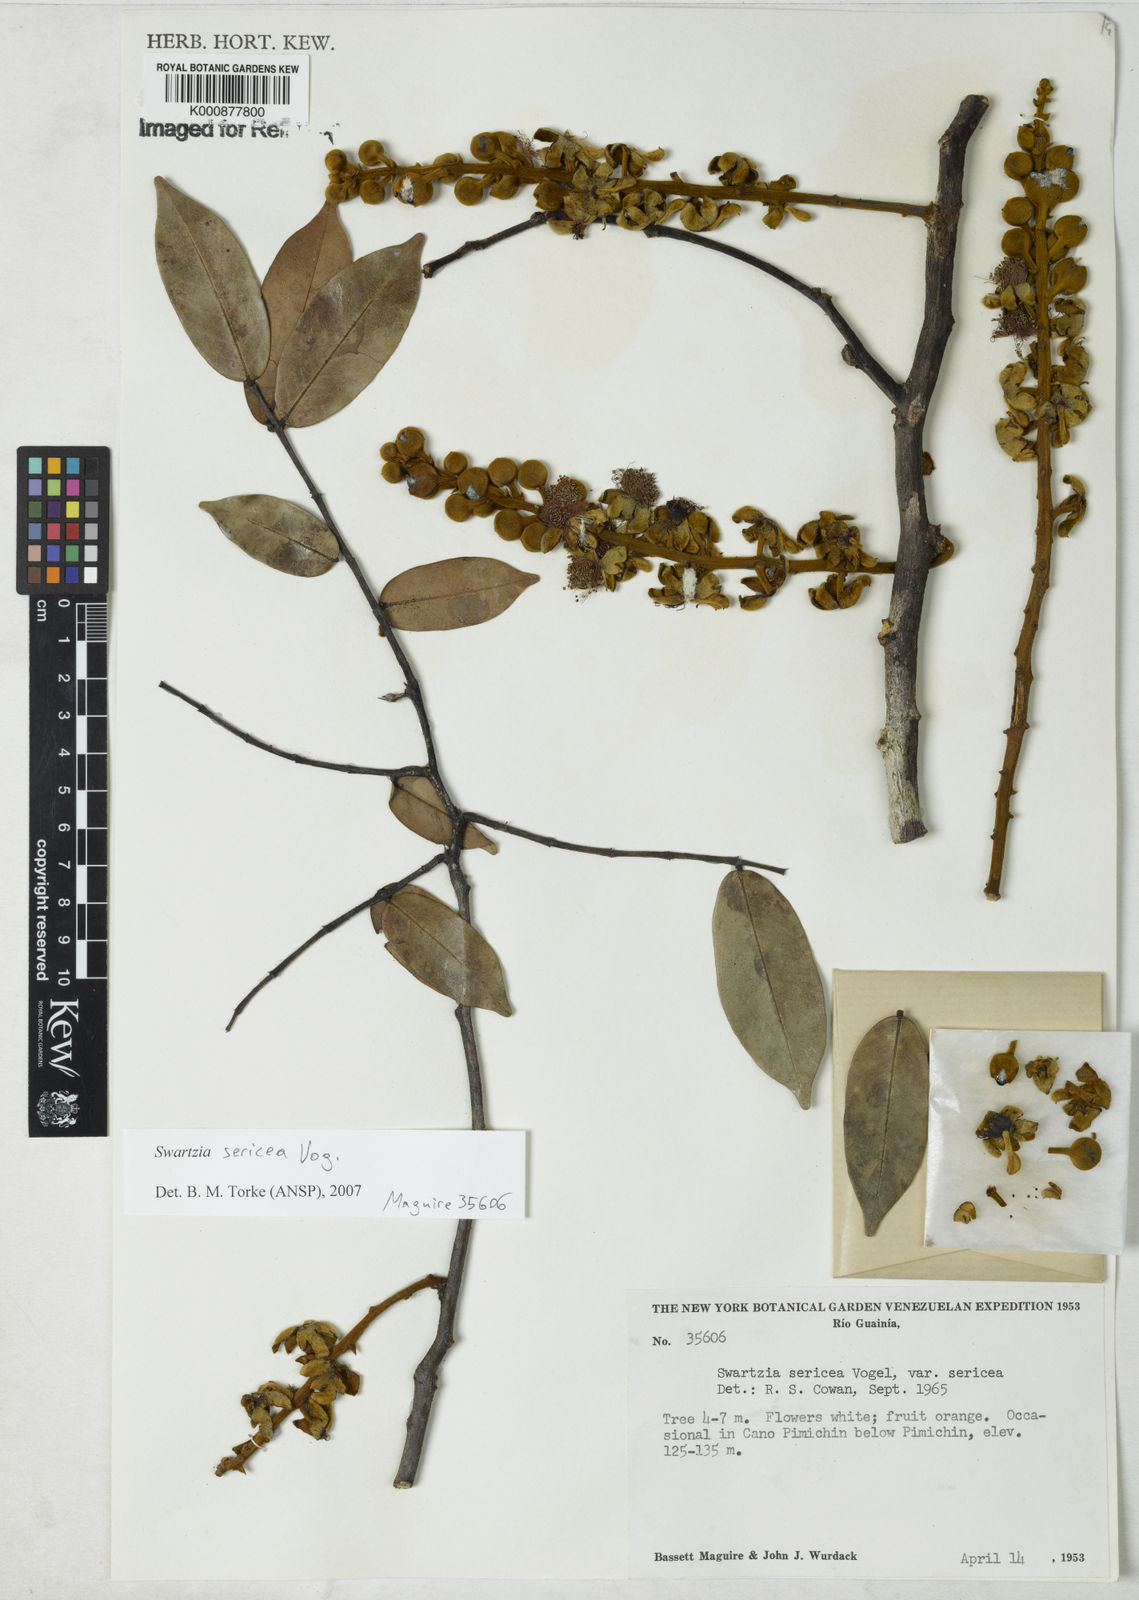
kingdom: Plantae
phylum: Tracheophyta
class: Magnoliopsida
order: Fabales
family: Fabaceae
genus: Swartzia
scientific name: Swartzia sericea
